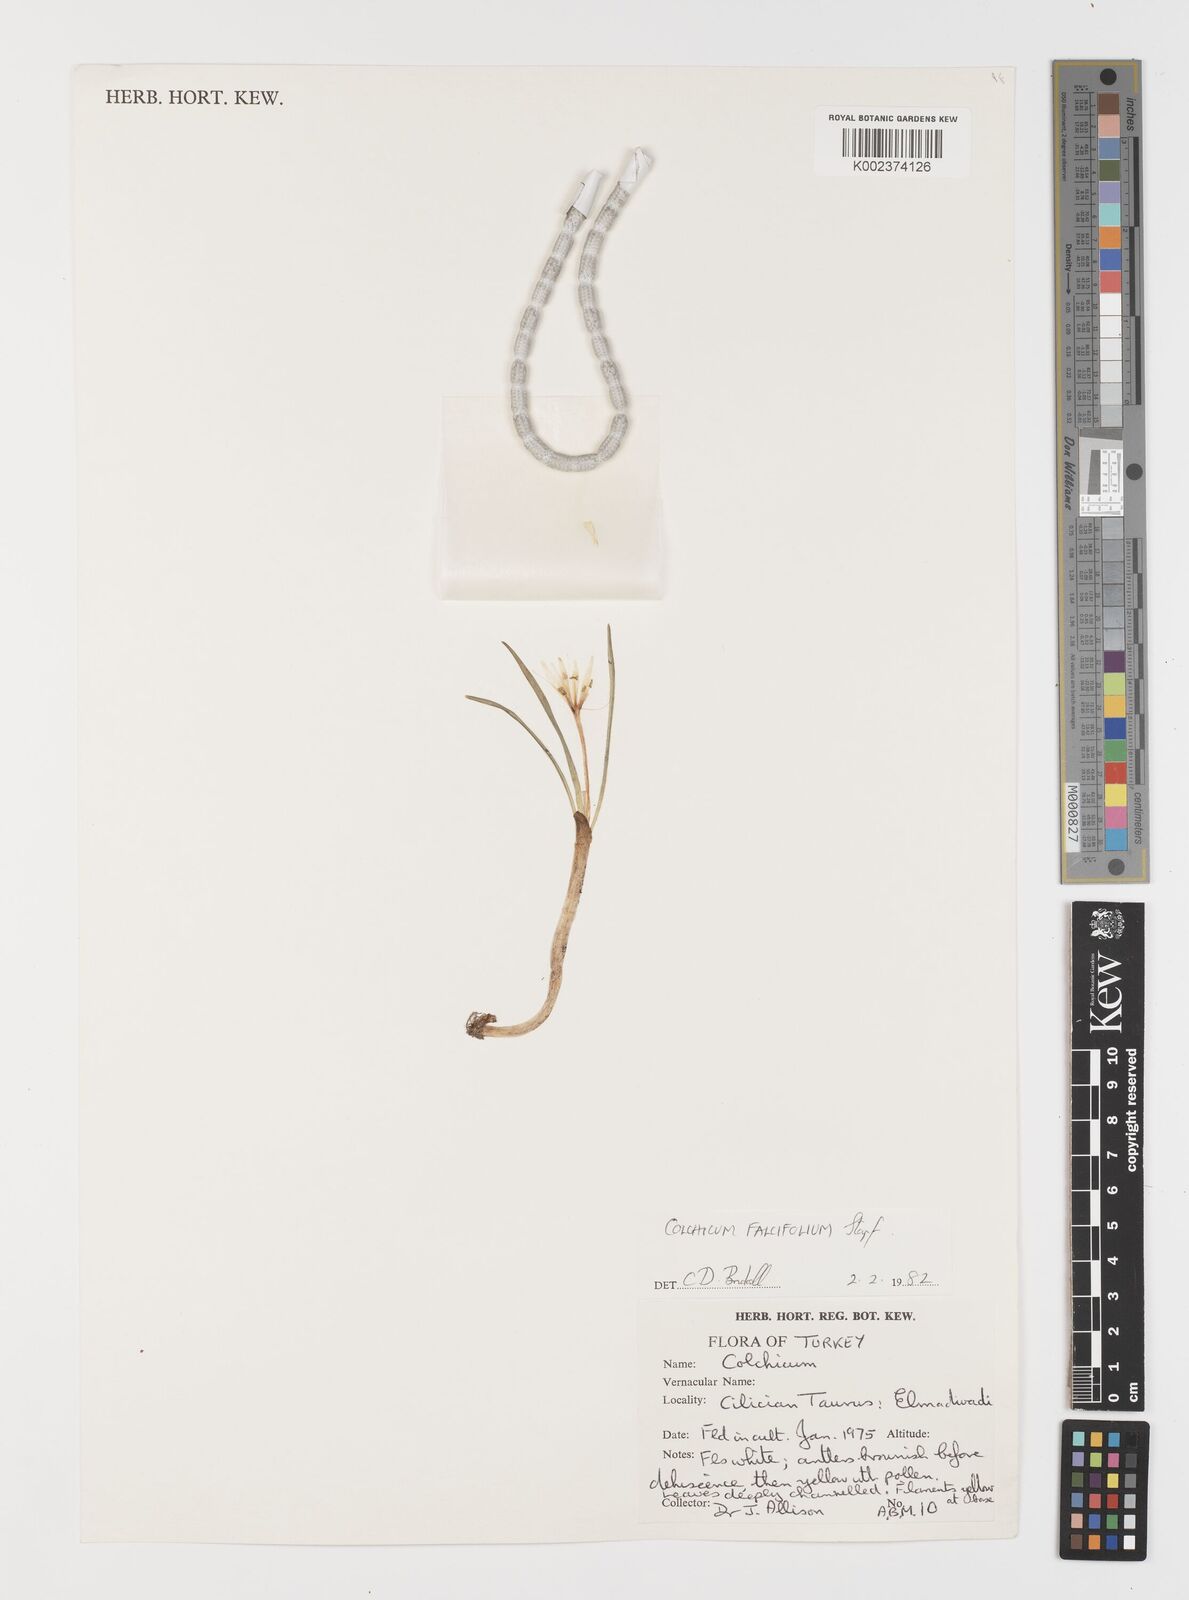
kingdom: Plantae
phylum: Tracheophyta
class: Liliopsida
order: Asparagales
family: Iridaceae
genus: Iris
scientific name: Iris caucasica
